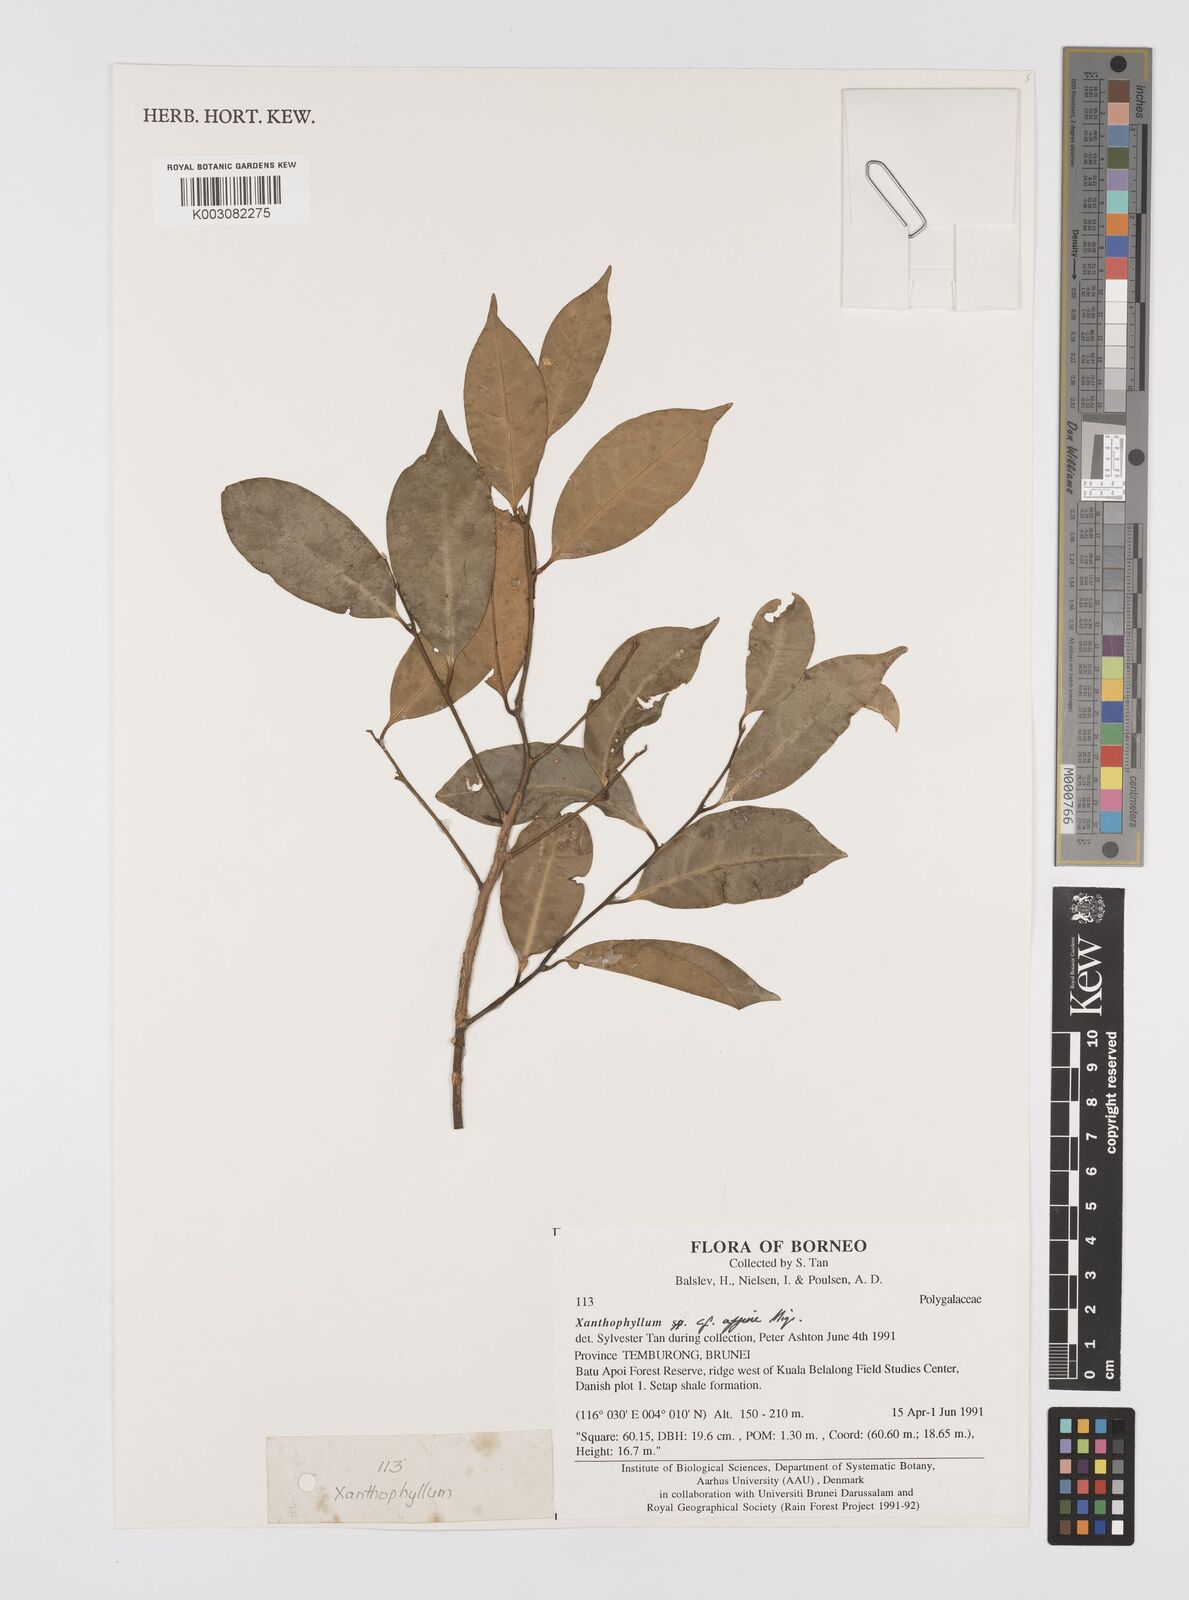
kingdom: Plantae
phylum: Tracheophyta
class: Magnoliopsida
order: Fabales
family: Polygalaceae
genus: Xanthophyllum
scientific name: Xanthophyllum flavescens
